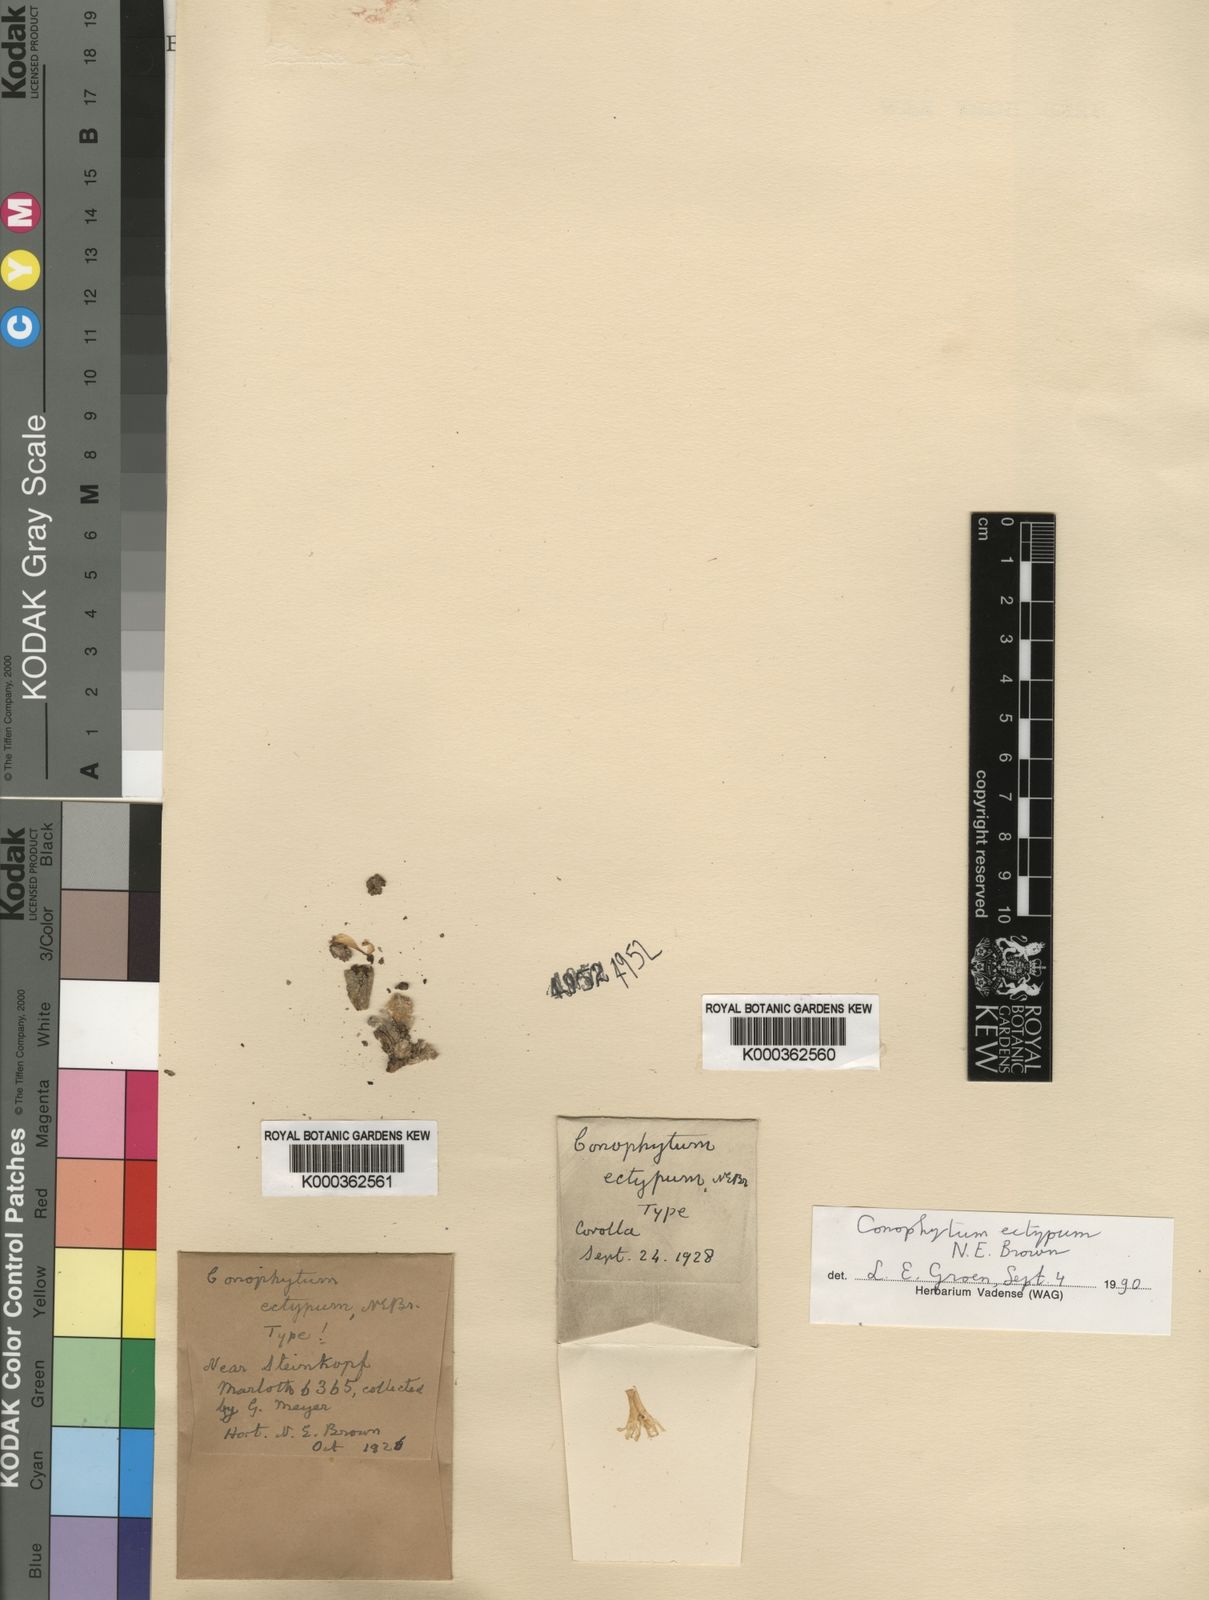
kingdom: Plantae
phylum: Tracheophyta
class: Magnoliopsida
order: Caryophyllales
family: Aizoaceae
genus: Conophytum
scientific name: Conophytum ectypum
